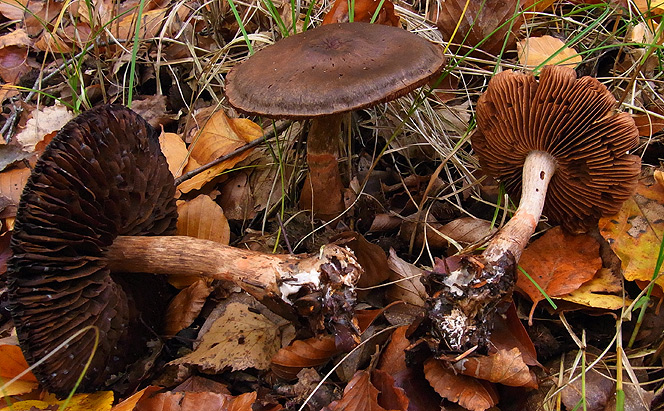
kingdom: Fungi
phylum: Basidiomycota
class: Agaricomycetes
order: Agaricales
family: Cortinariaceae
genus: Cortinarius
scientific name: Cortinarius roseoarmillatus
